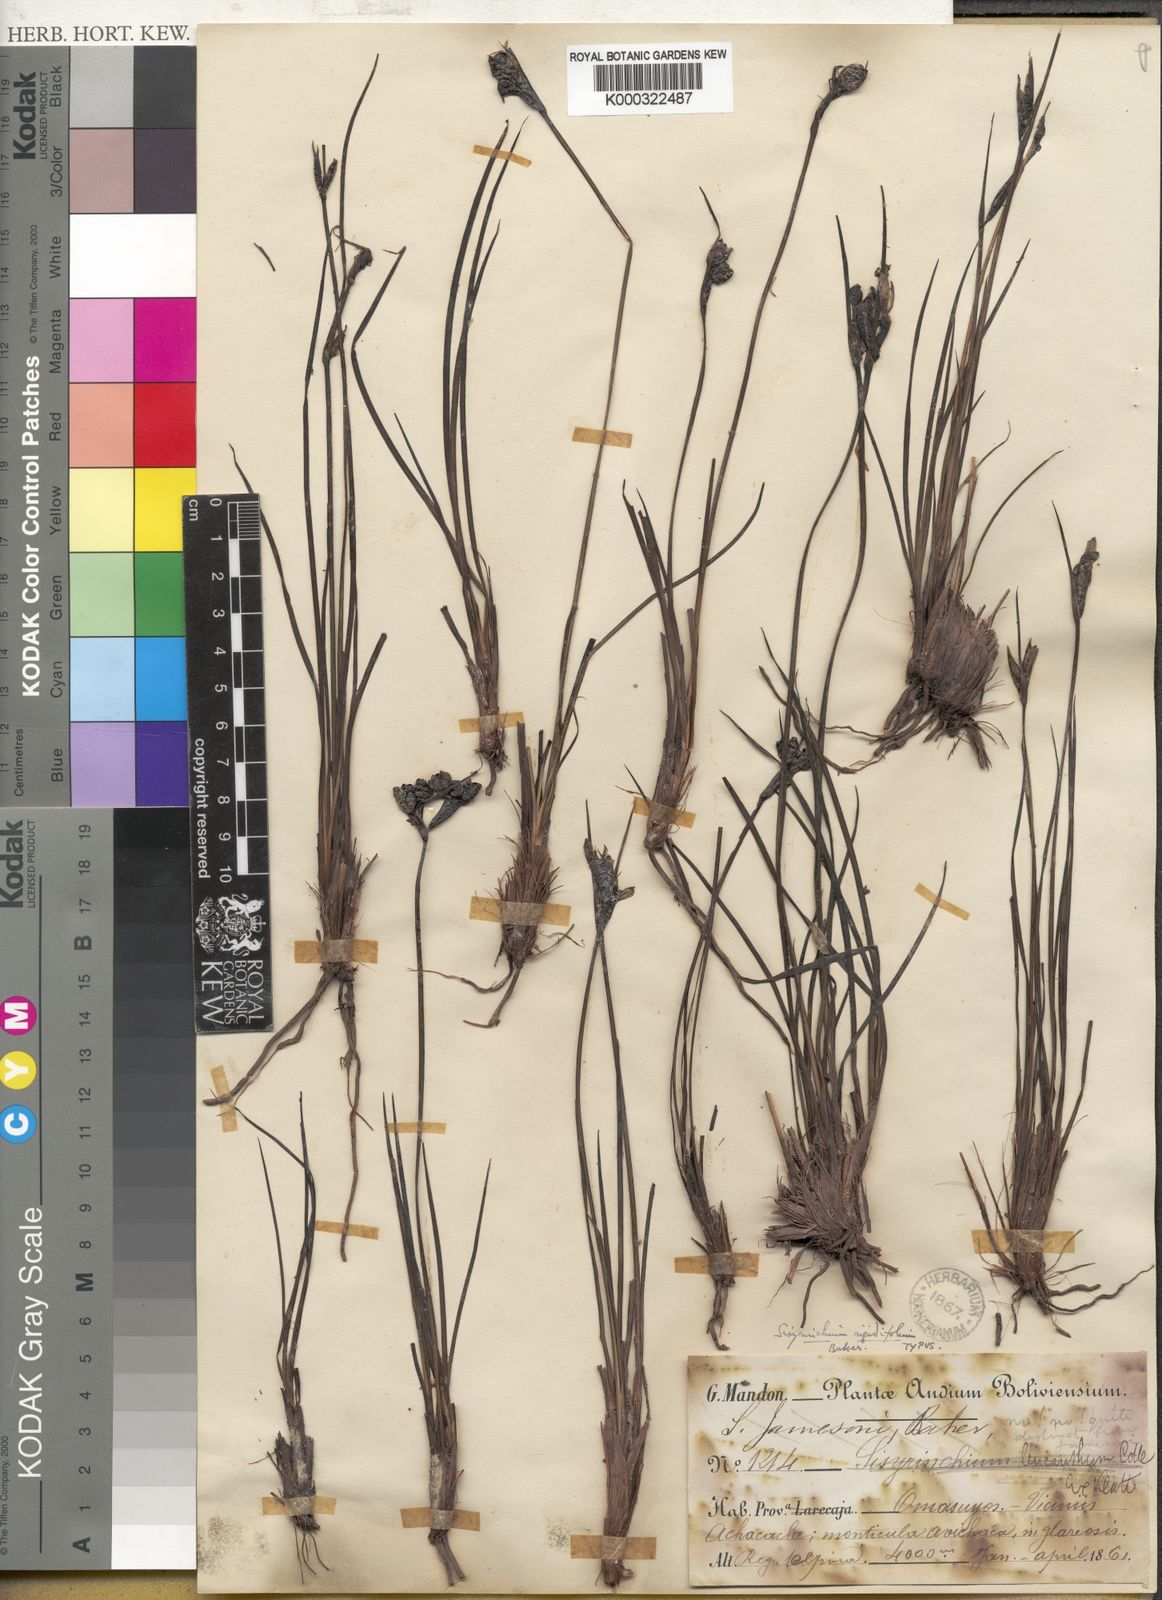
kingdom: Plantae
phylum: Tracheophyta
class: Liliopsida
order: Asparagales
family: Iridaceae
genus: Sisyrinchium
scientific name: Sisyrinchium rigidifolium
